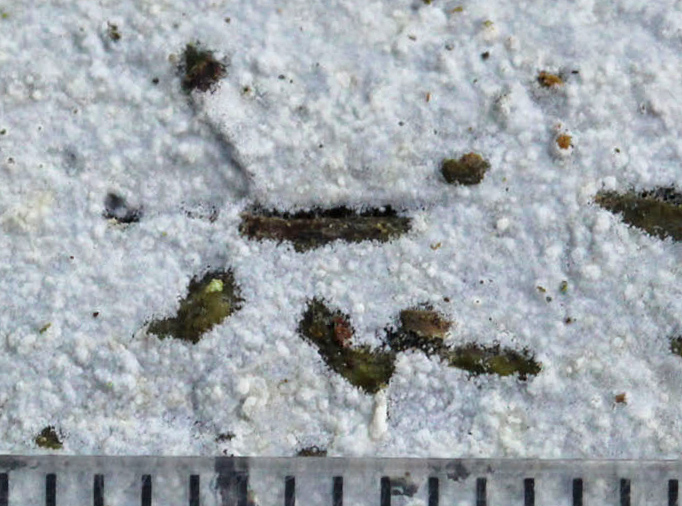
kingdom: Fungi
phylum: Basidiomycota
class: Agaricomycetes
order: Atheliales
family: Atheliaceae
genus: Athelia
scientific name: Athelia neuhoffii
